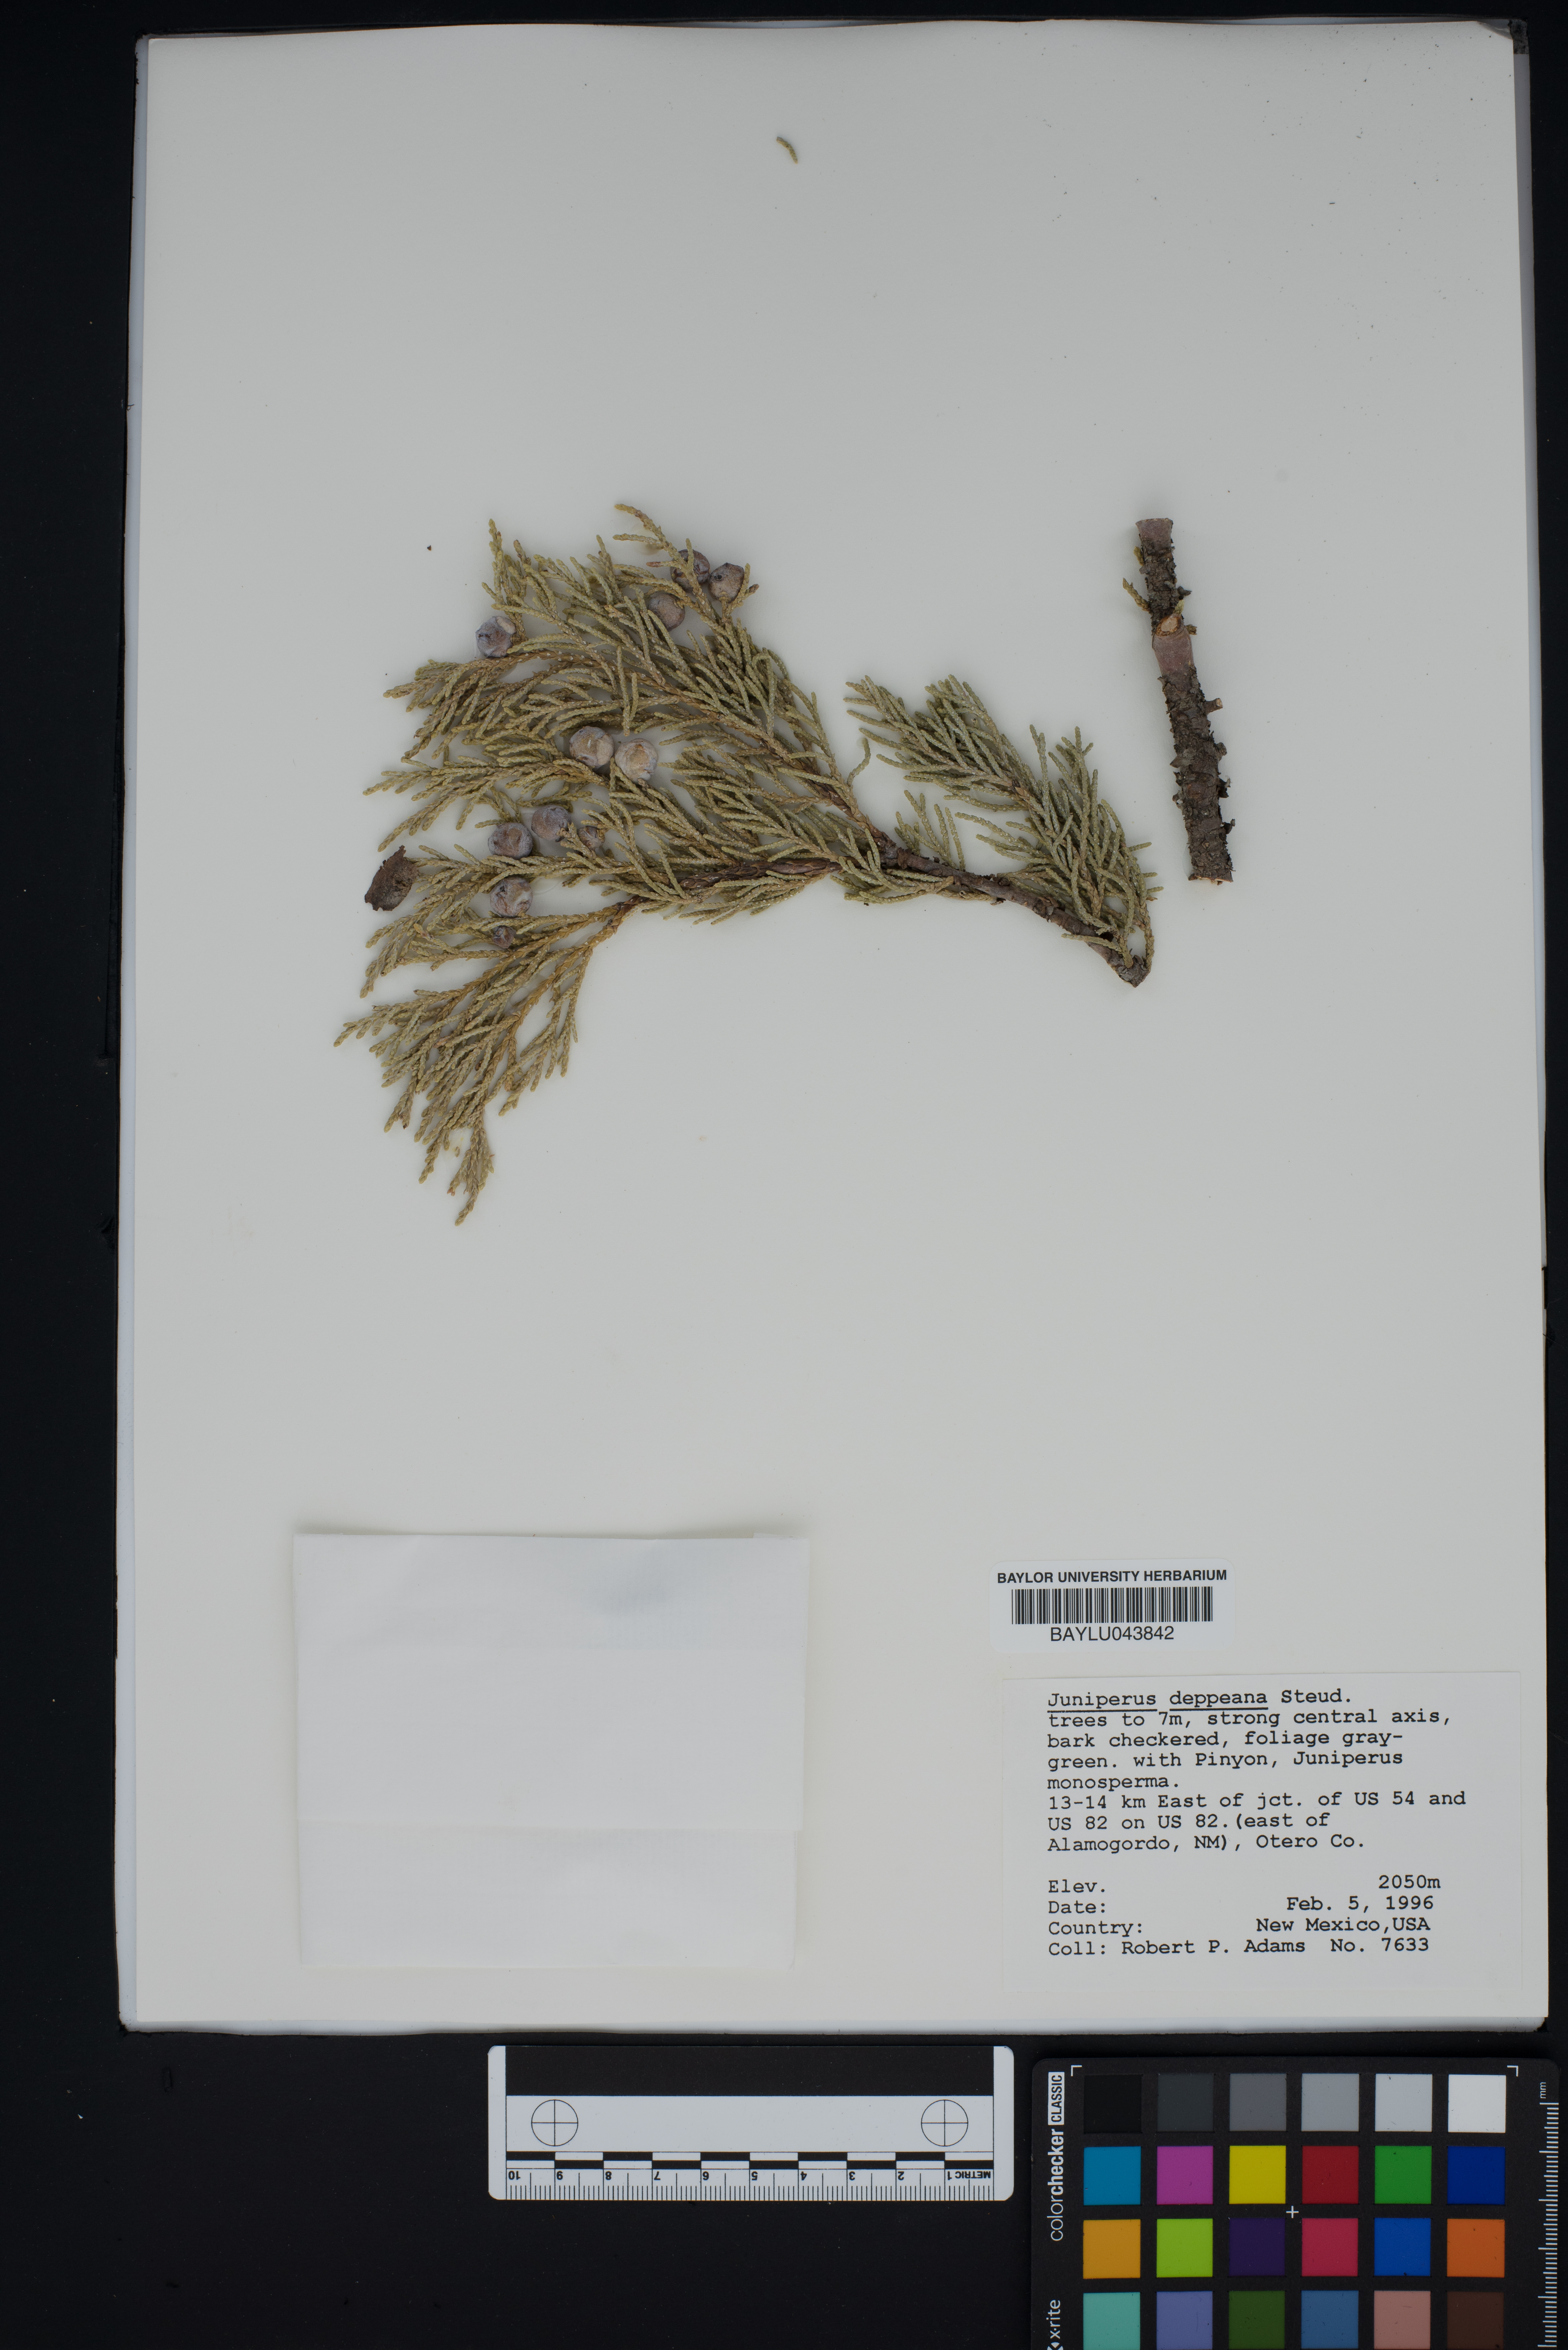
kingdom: Plantae
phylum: Tracheophyta
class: Pinopsida
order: Pinales
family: Cupressaceae
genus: Juniperus
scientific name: Juniperus deppeana
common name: Alligator juniper
